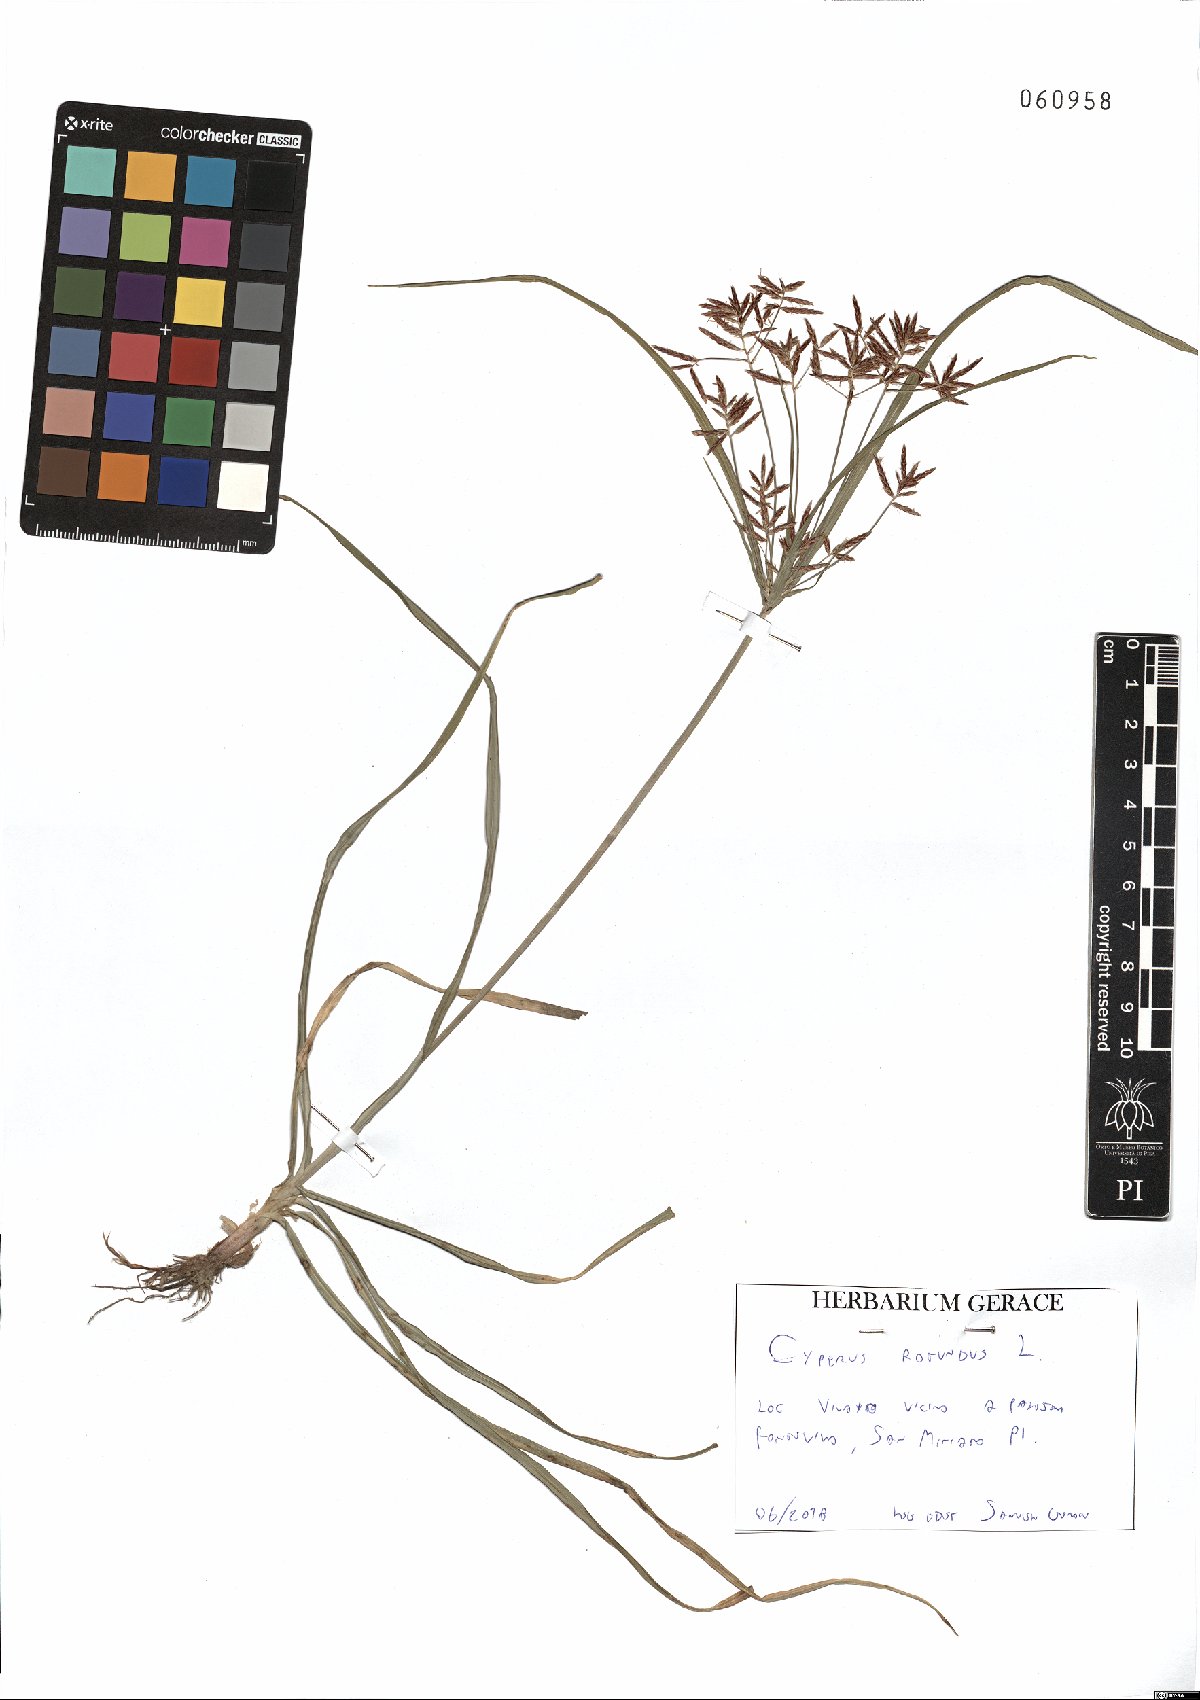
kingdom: Plantae
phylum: Tracheophyta
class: Liliopsida
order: Poales
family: Cyperaceae
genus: Cyperus
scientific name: Cyperus rotundus
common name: Nutgrass
